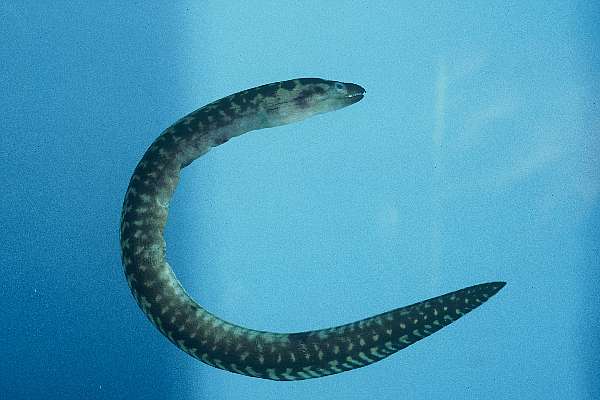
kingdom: Animalia
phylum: Chordata
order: Anguilliformes
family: Muraenidae
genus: Gymnothorax
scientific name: Gymnothorax margaritophorus
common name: Blotch-necked moray
